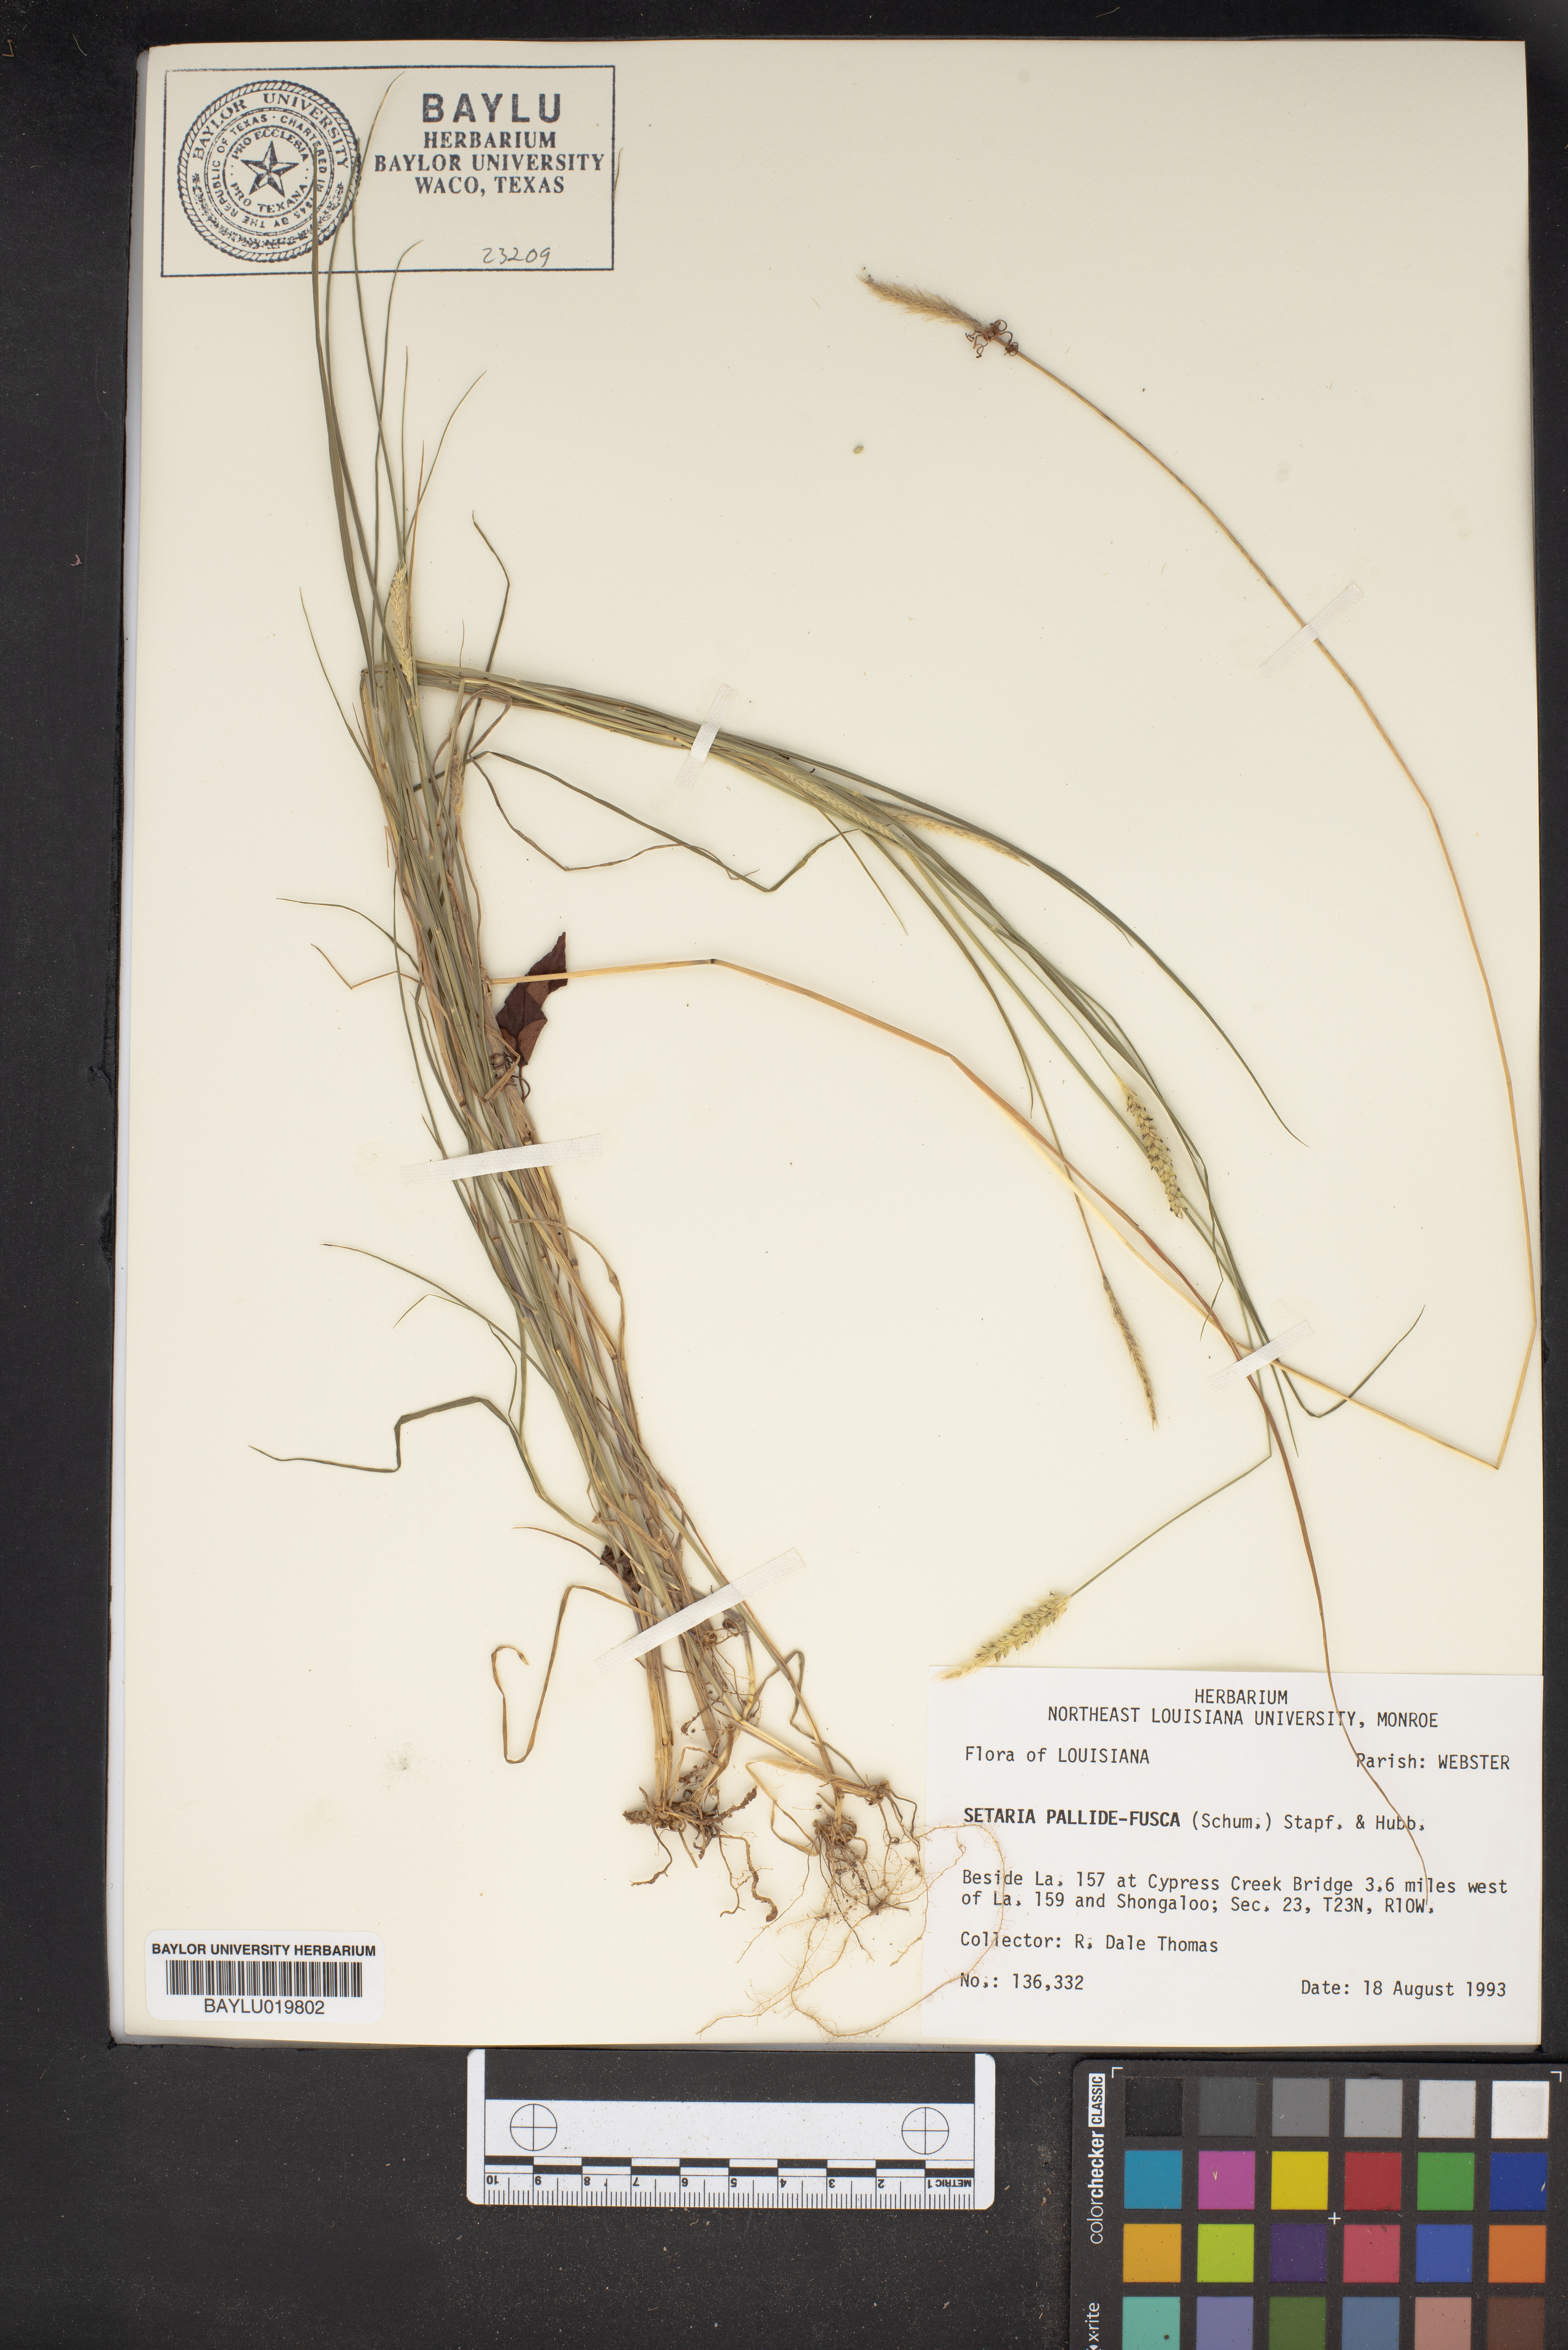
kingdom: Plantae
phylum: Tracheophyta
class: Liliopsida
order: Poales
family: Poaceae
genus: Setaria
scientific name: Setaria pumila
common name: Yellow bristle-grass
